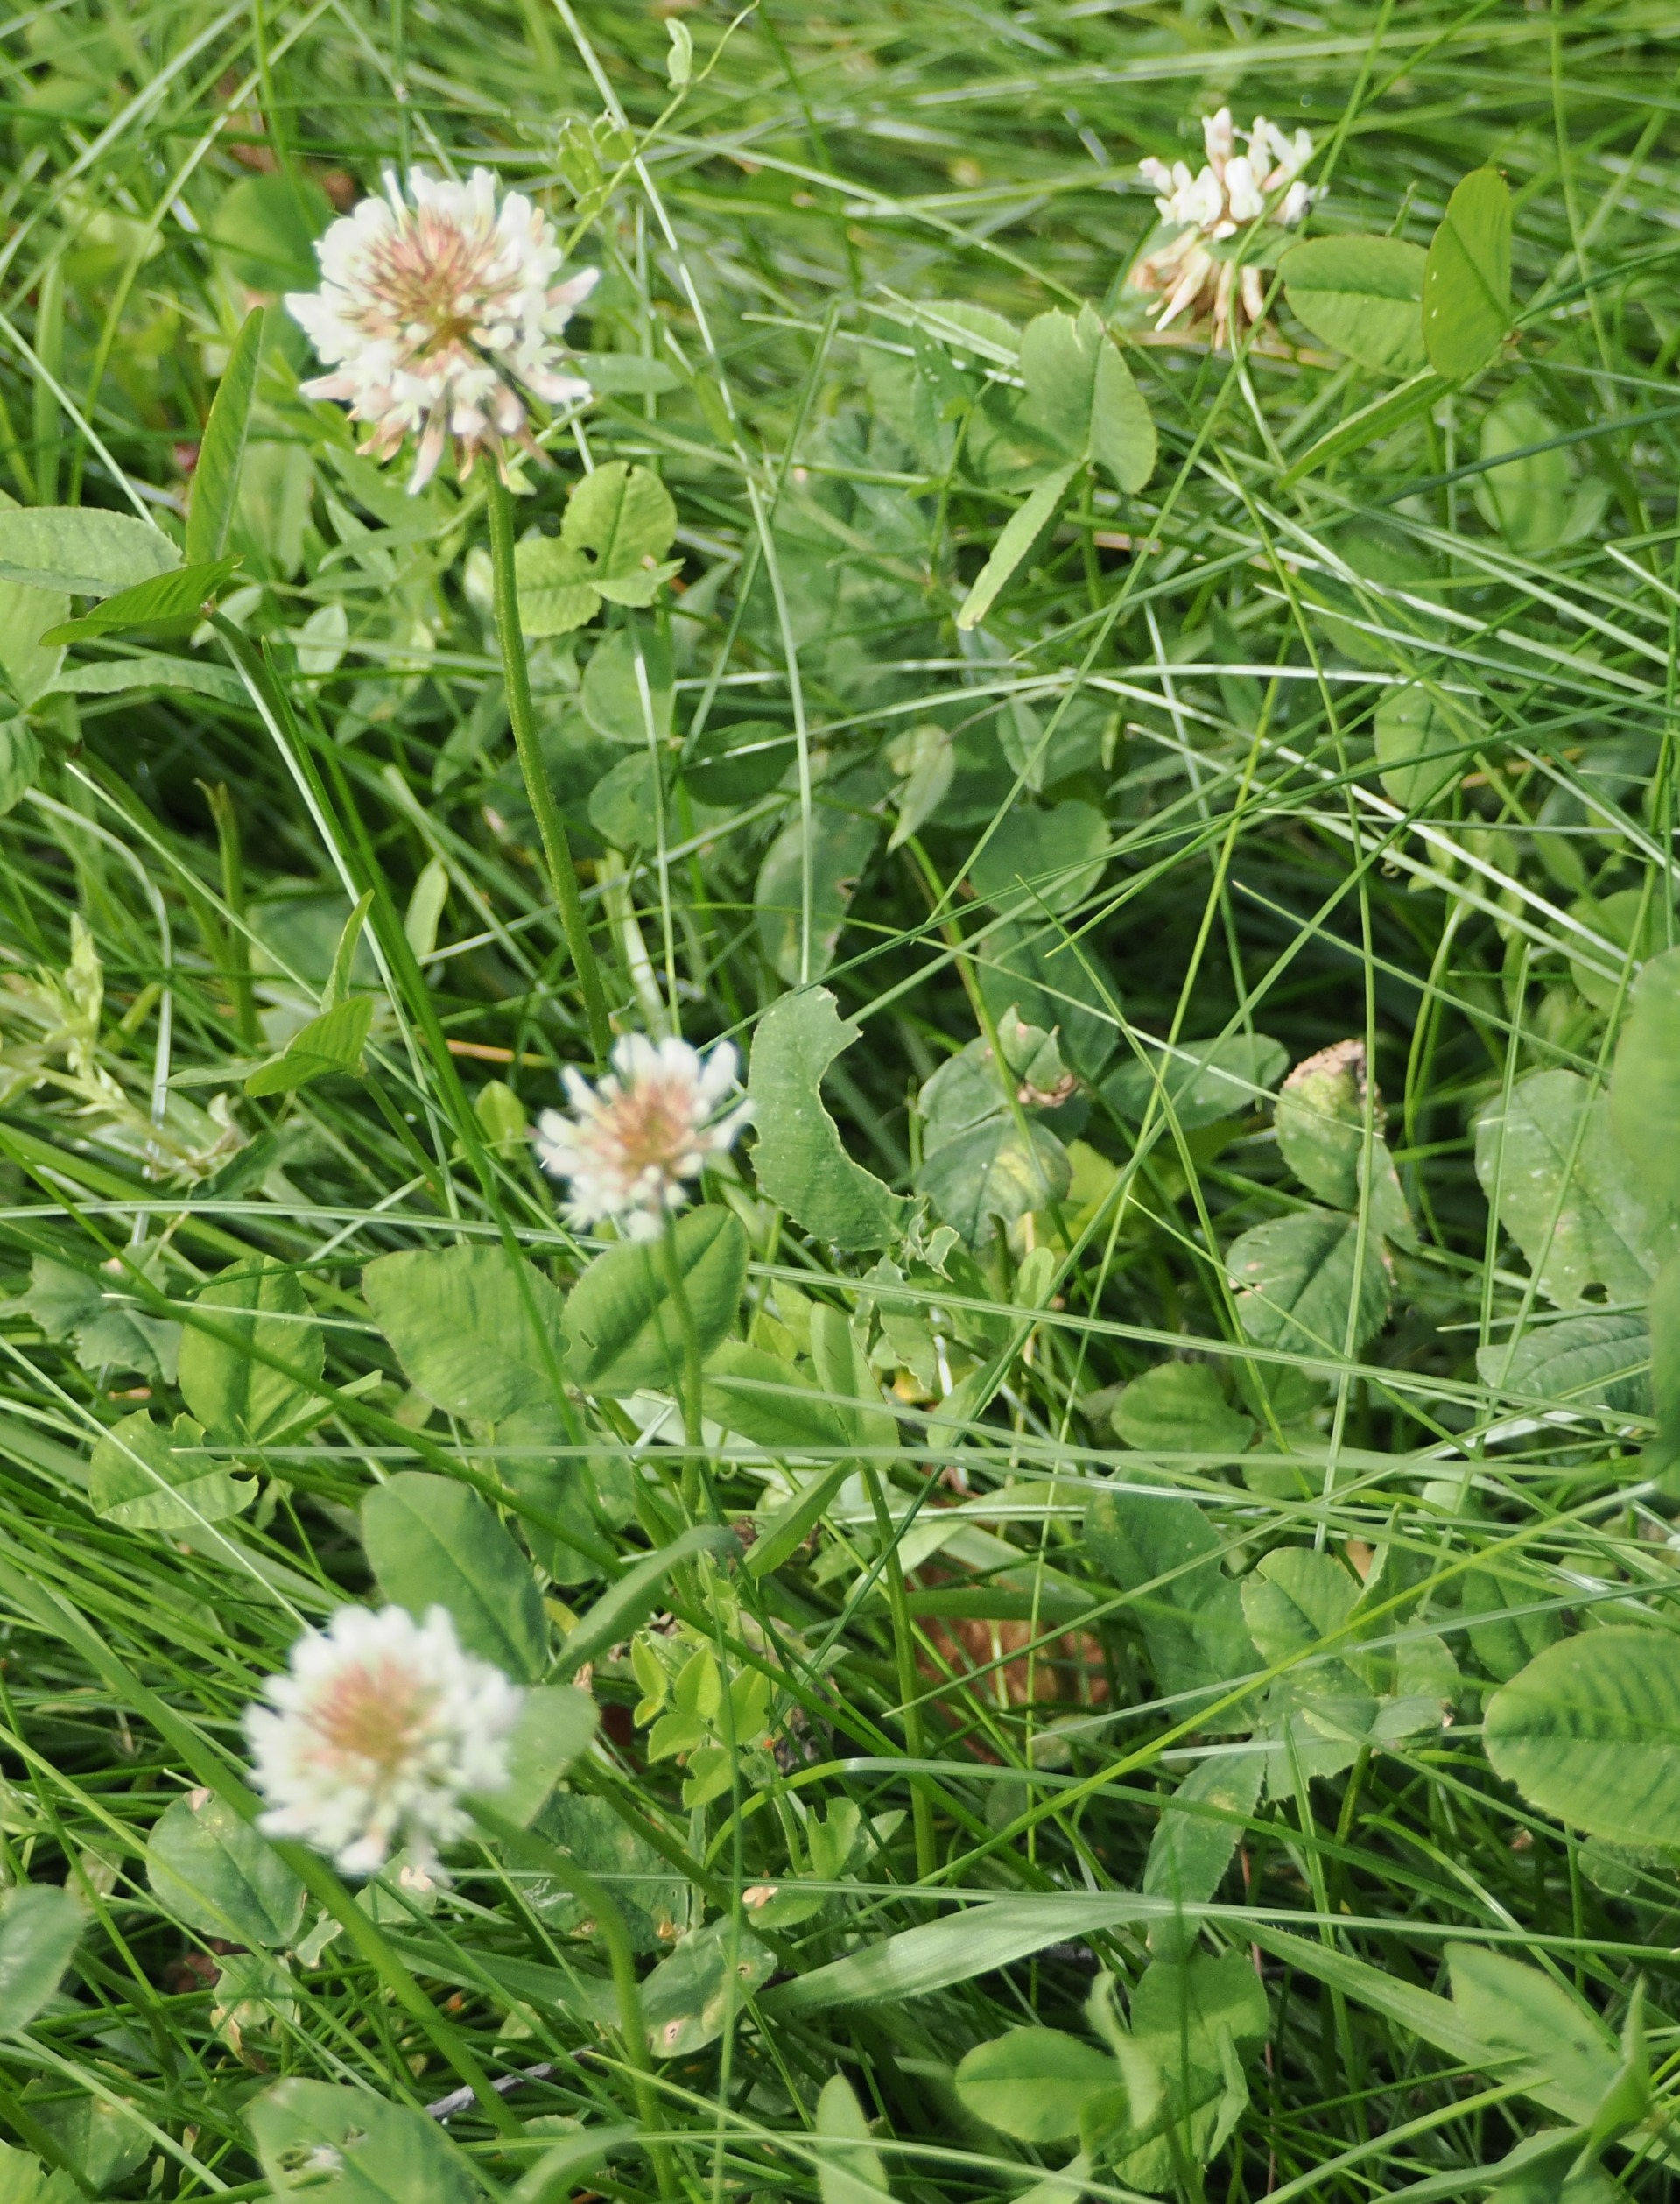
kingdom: Plantae
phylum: Tracheophyta
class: Magnoliopsida
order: Fabales
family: Fabaceae
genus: Trifolium
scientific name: Trifolium repens
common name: Hvid-kløver
